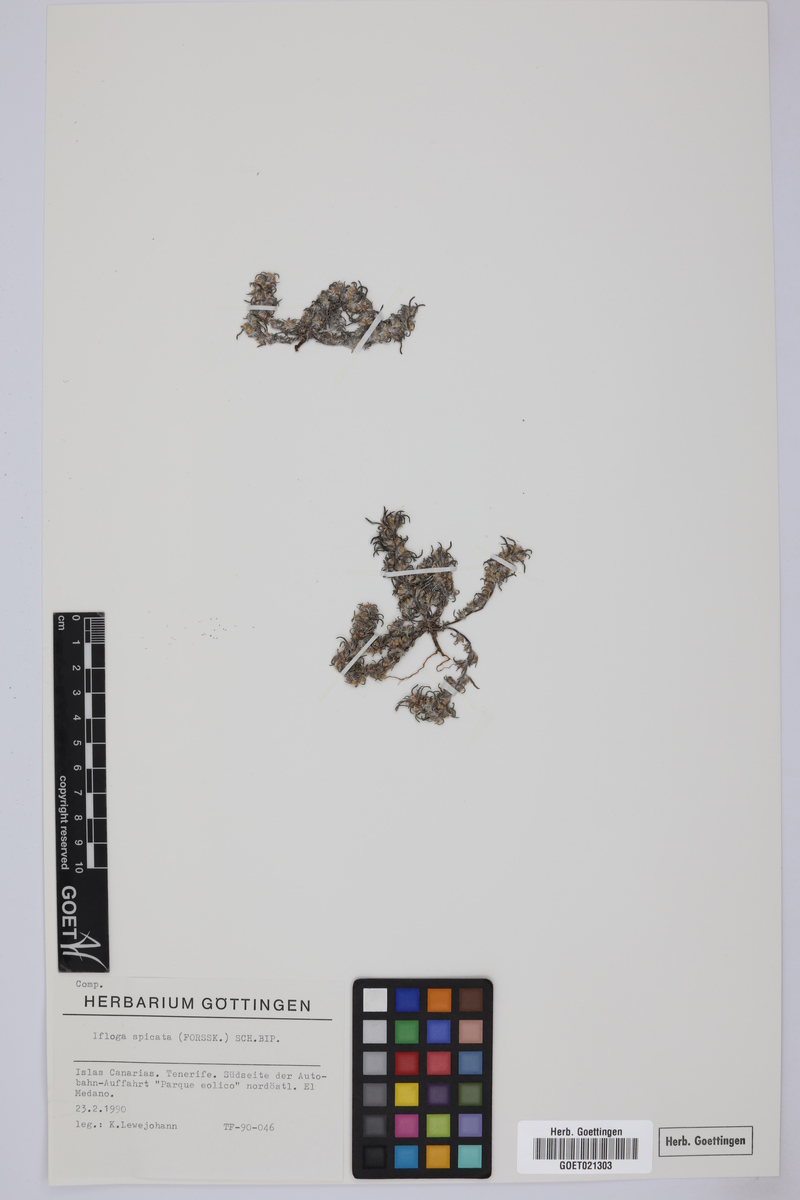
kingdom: Plantae
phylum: Tracheophyta
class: Magnoliopsida
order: Asterales
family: Asteraceae
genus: Ifloga
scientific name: Ifloga spicata
